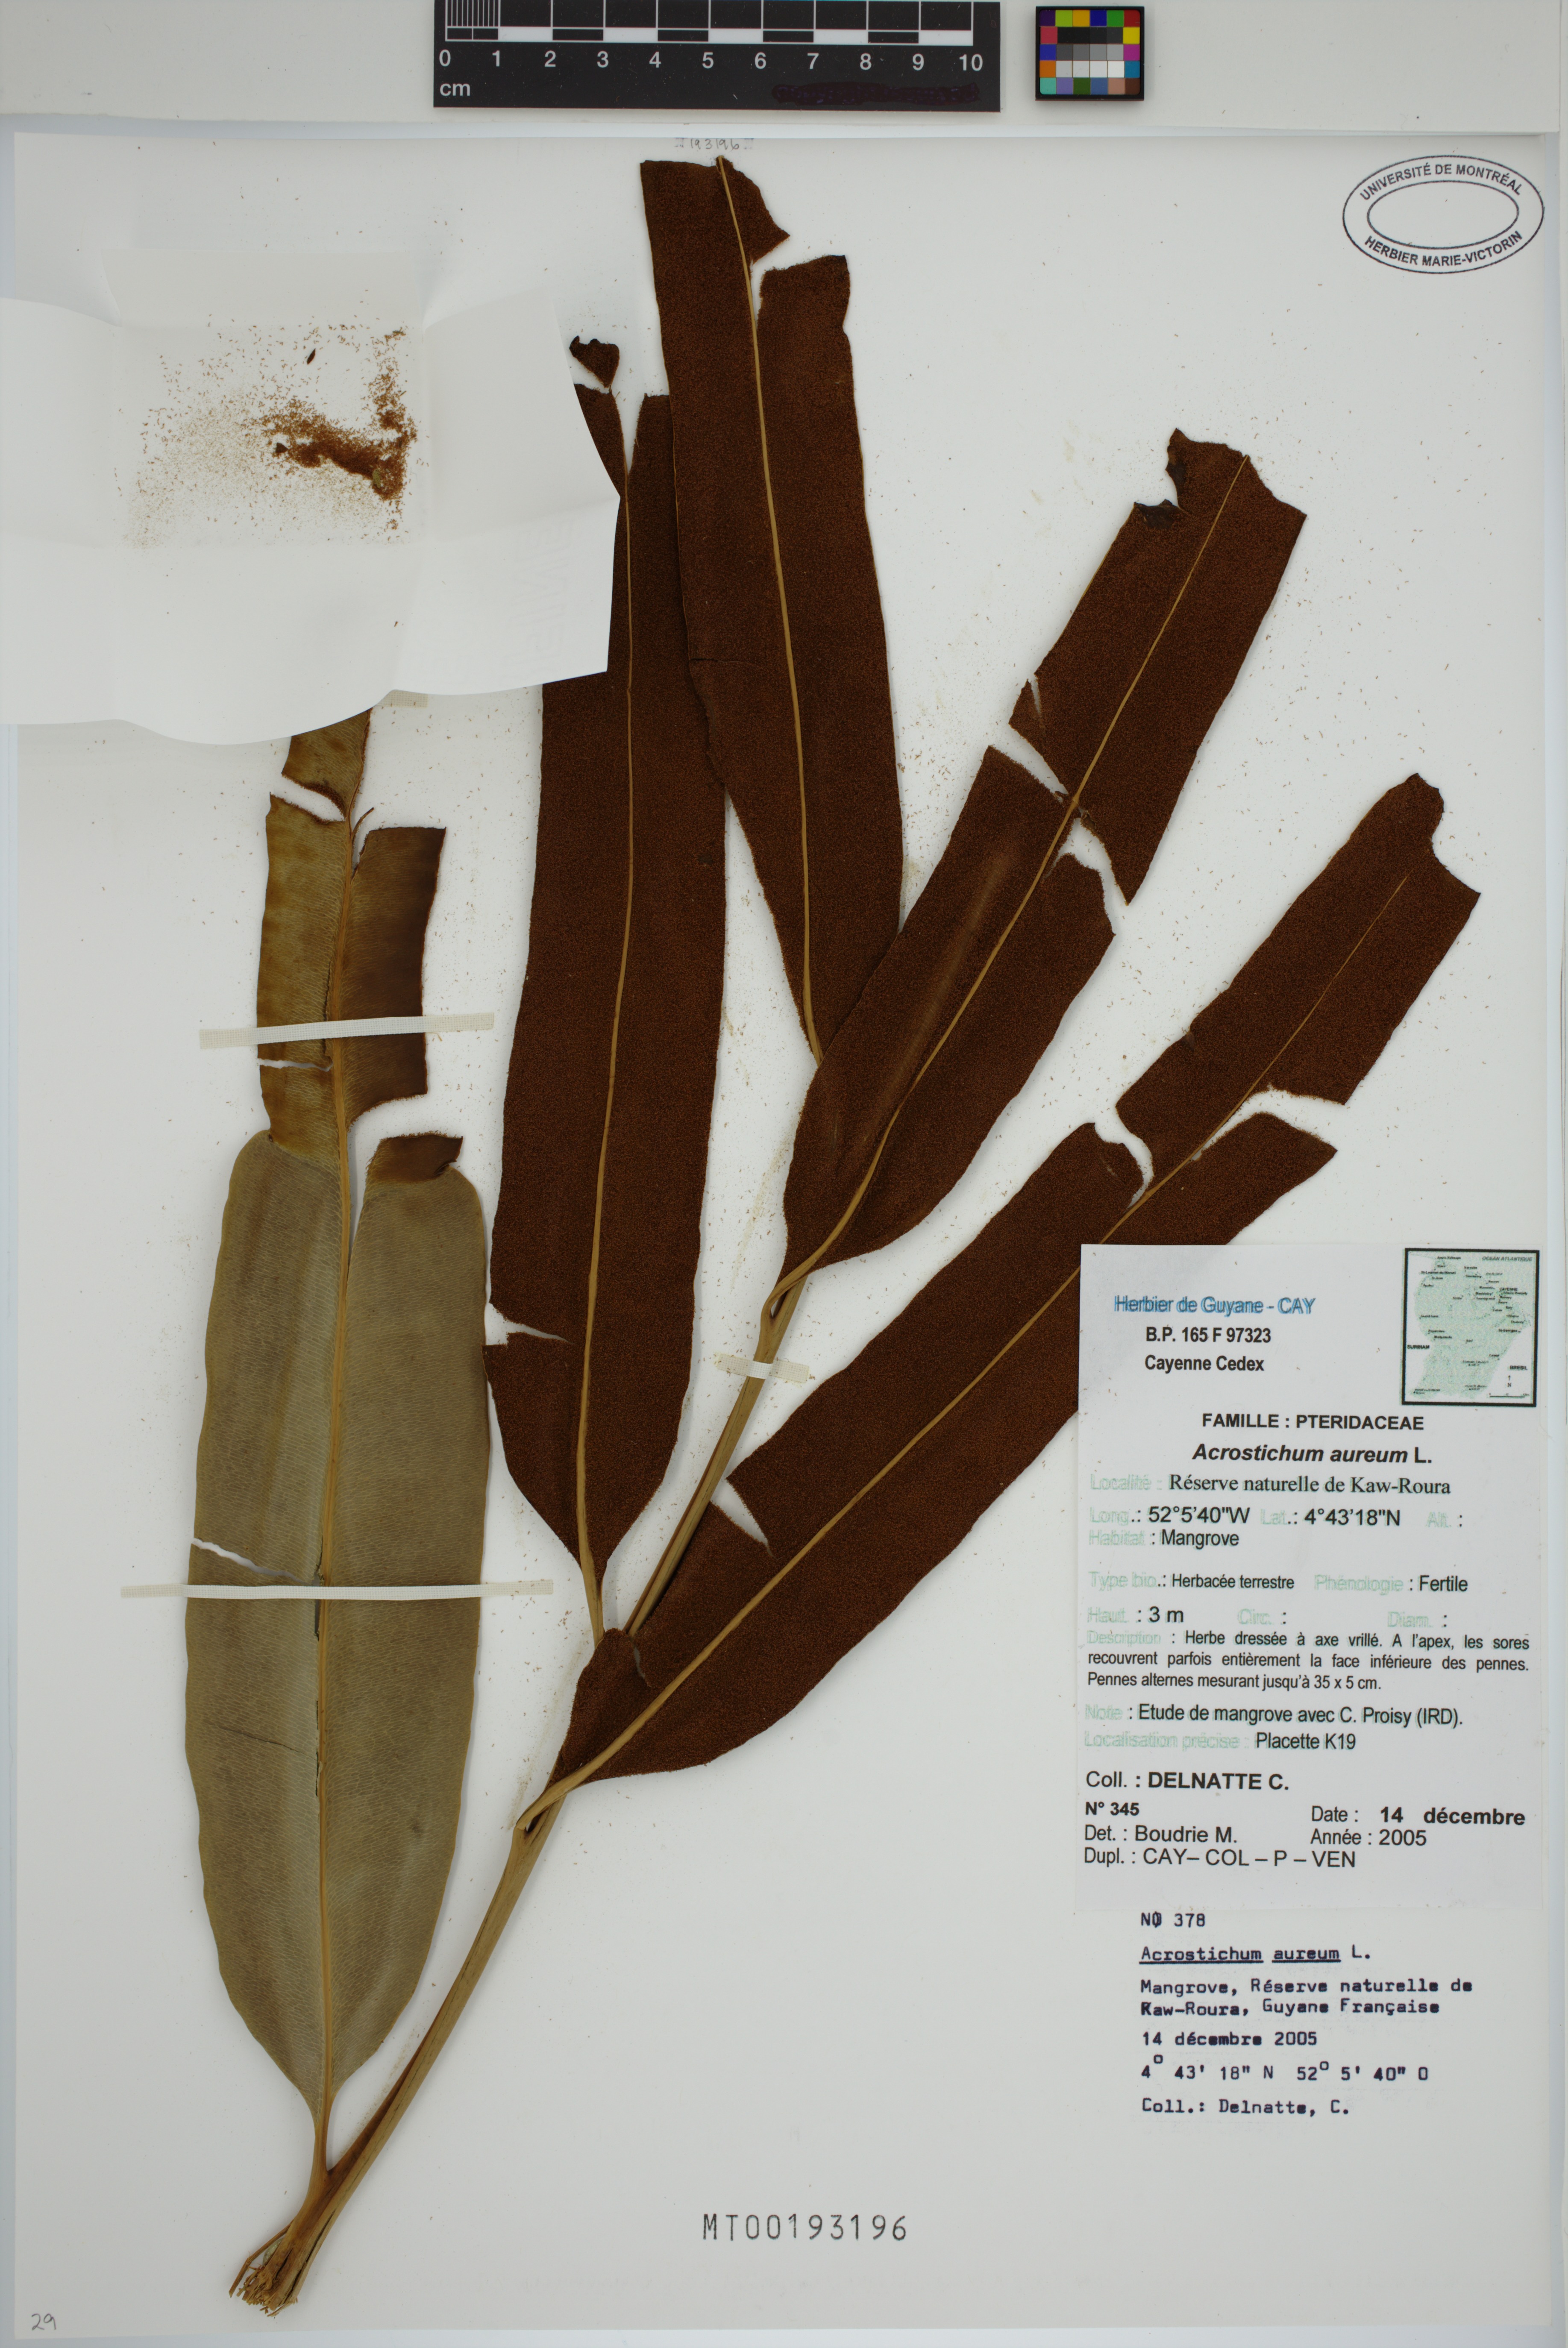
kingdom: Plantae
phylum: Tracheophyta
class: Polypodiopsida
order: Polypodiales
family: Pteridaceae
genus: Acrostichum
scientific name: Acrostichum aureum
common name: Leather fern
